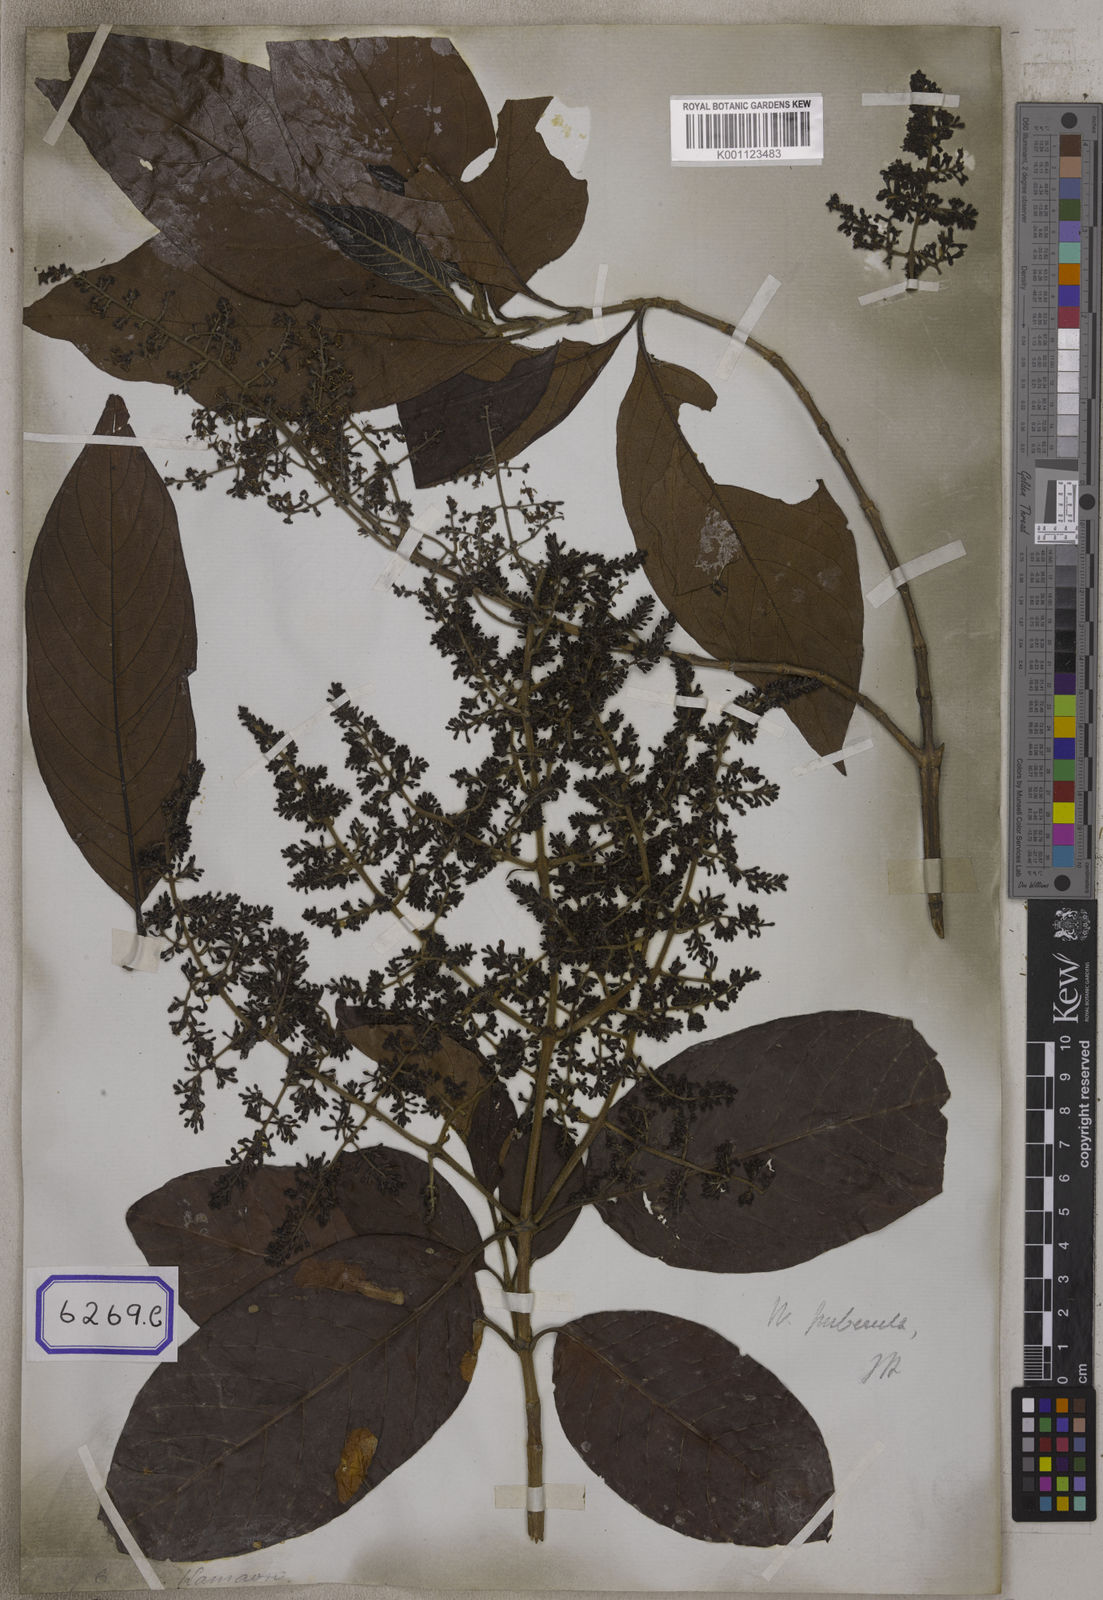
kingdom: Plantae
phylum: Tracheophyta
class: Magnoliopsida
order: Gentianales
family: Rubiaceae
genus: Wendlandia
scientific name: Wendlandia tinctoria
